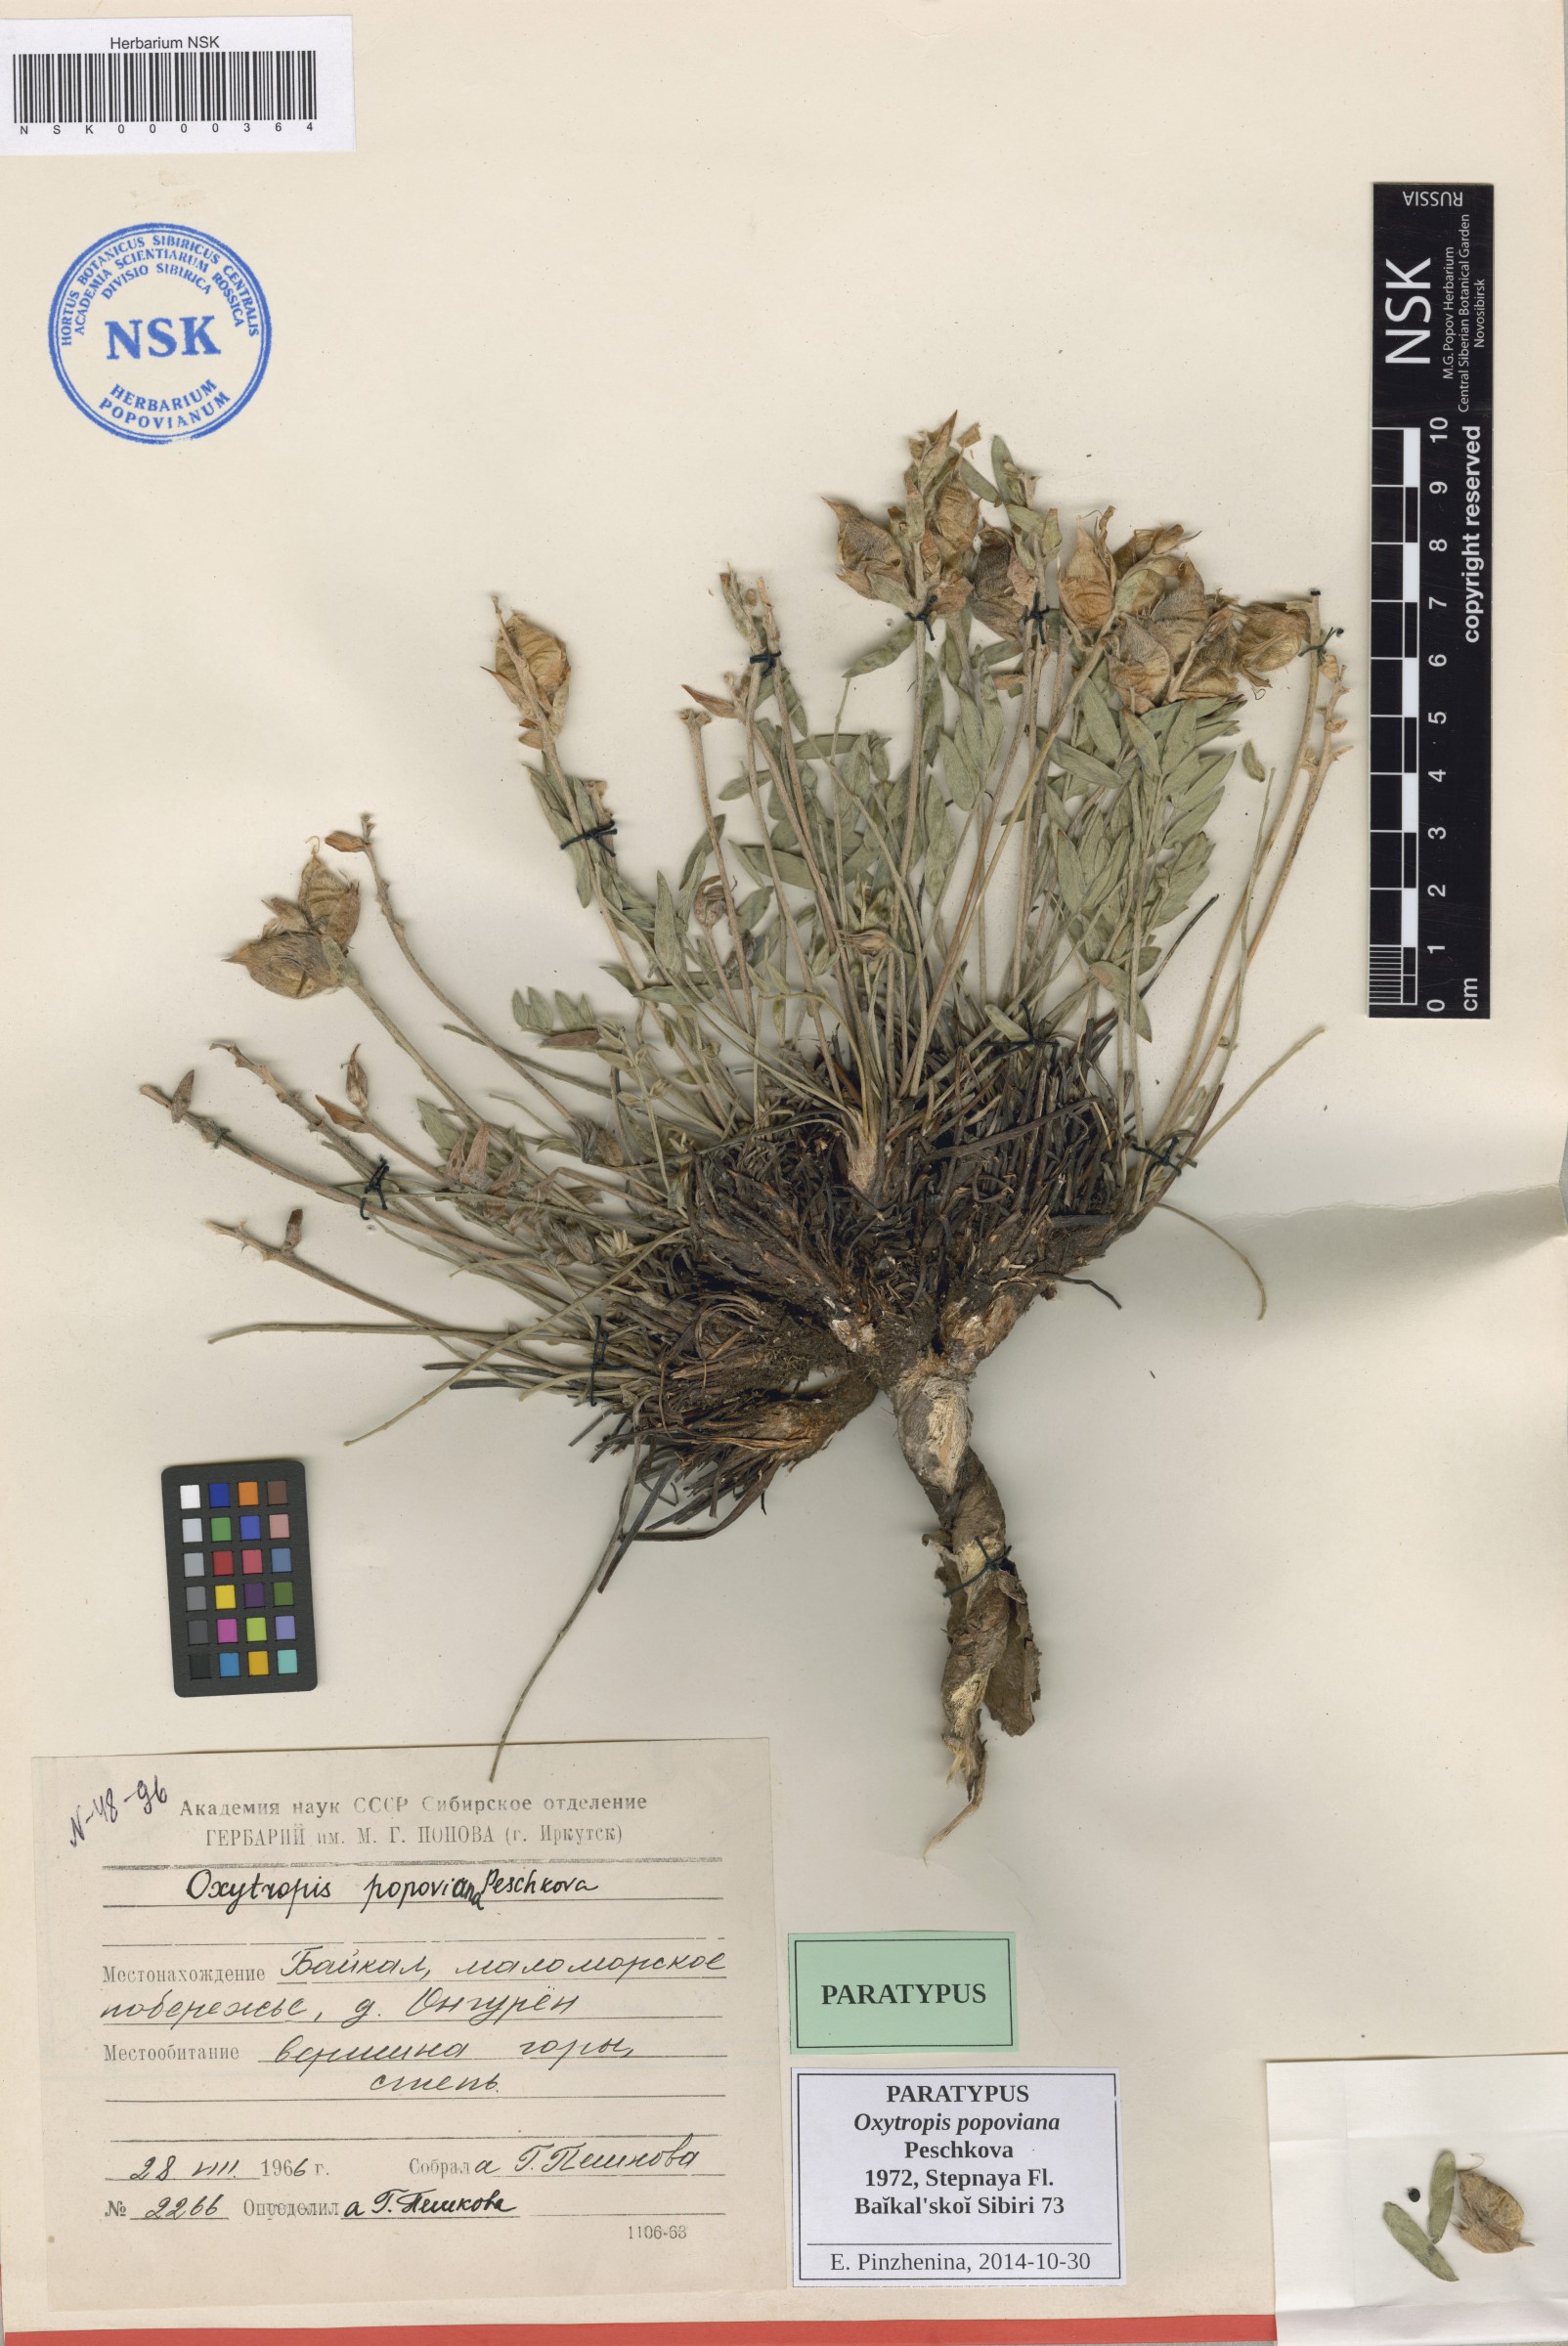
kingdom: Plantae
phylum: Tracheophyta
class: Magnoliopsida
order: Fabales
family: Fabaceae
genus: Oxytropis
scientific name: Oxytropis popoviana
